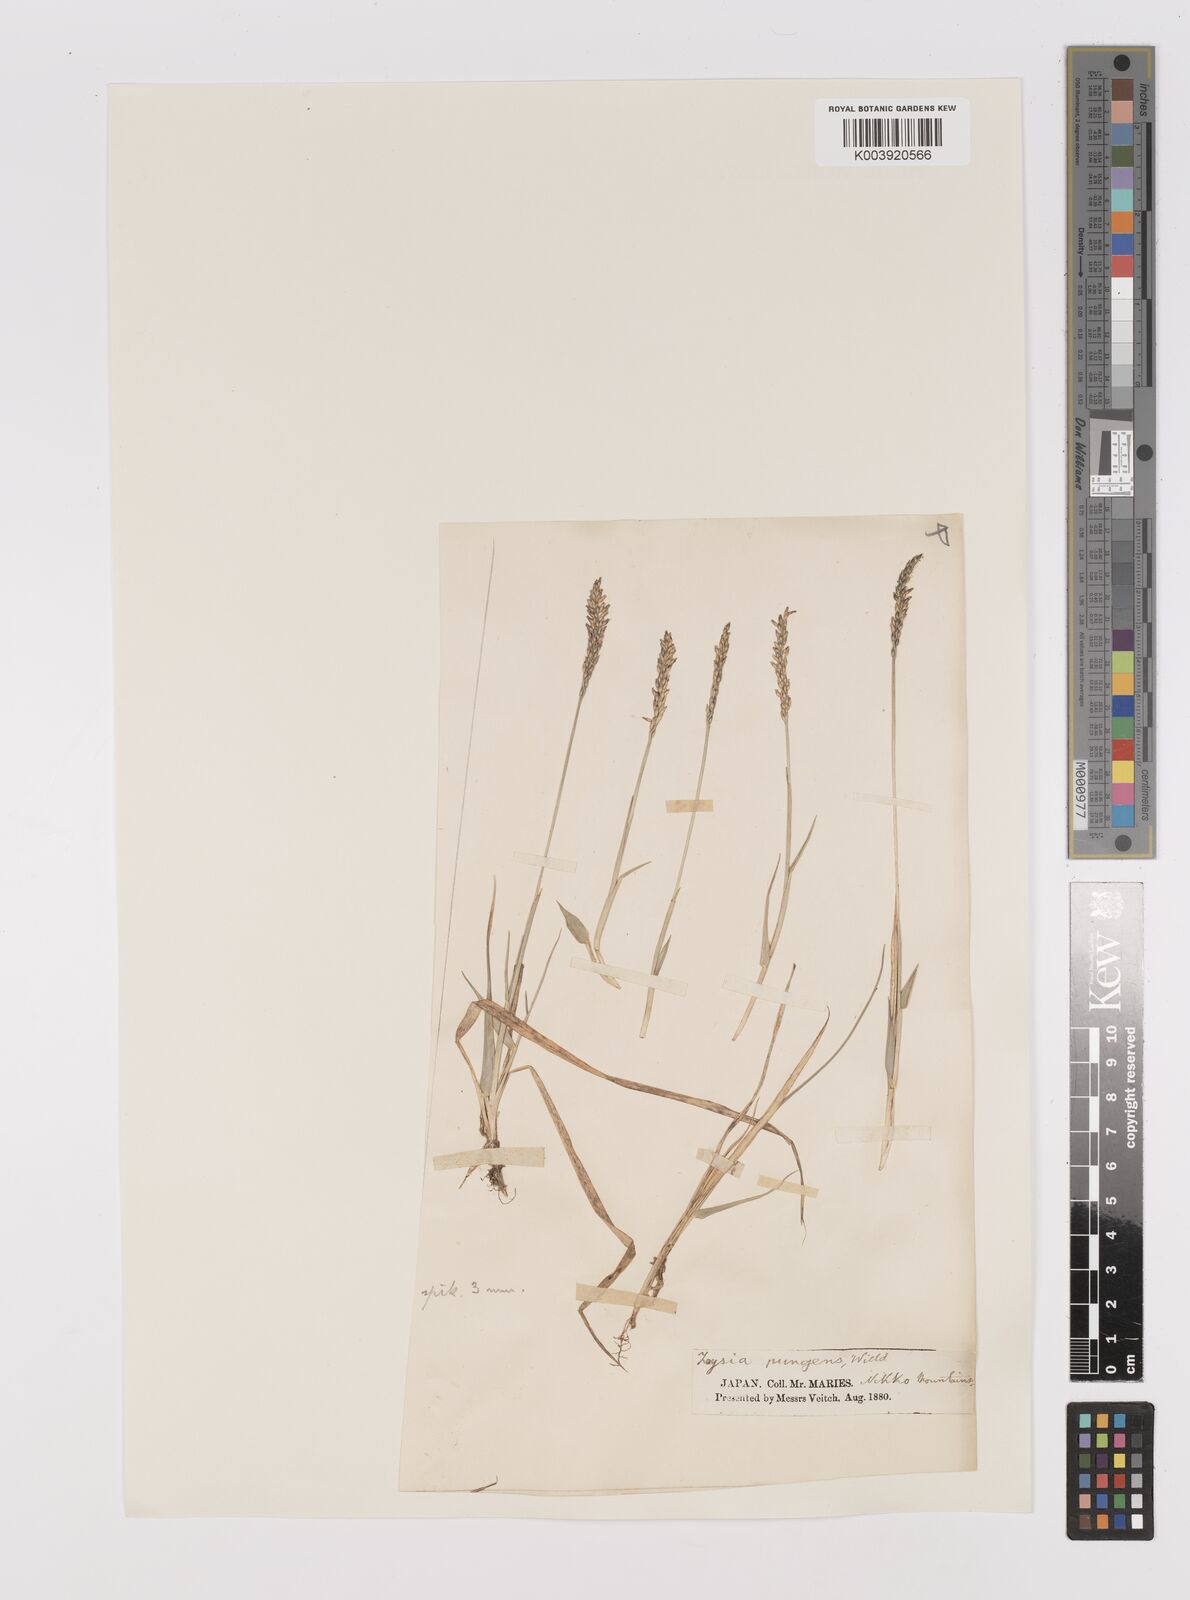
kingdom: Plantae
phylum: Tracheophyta
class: Liliopsida
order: Poales
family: Poaceae
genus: Zoysia
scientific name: Zoysia japonica
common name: Korean lawngrass
